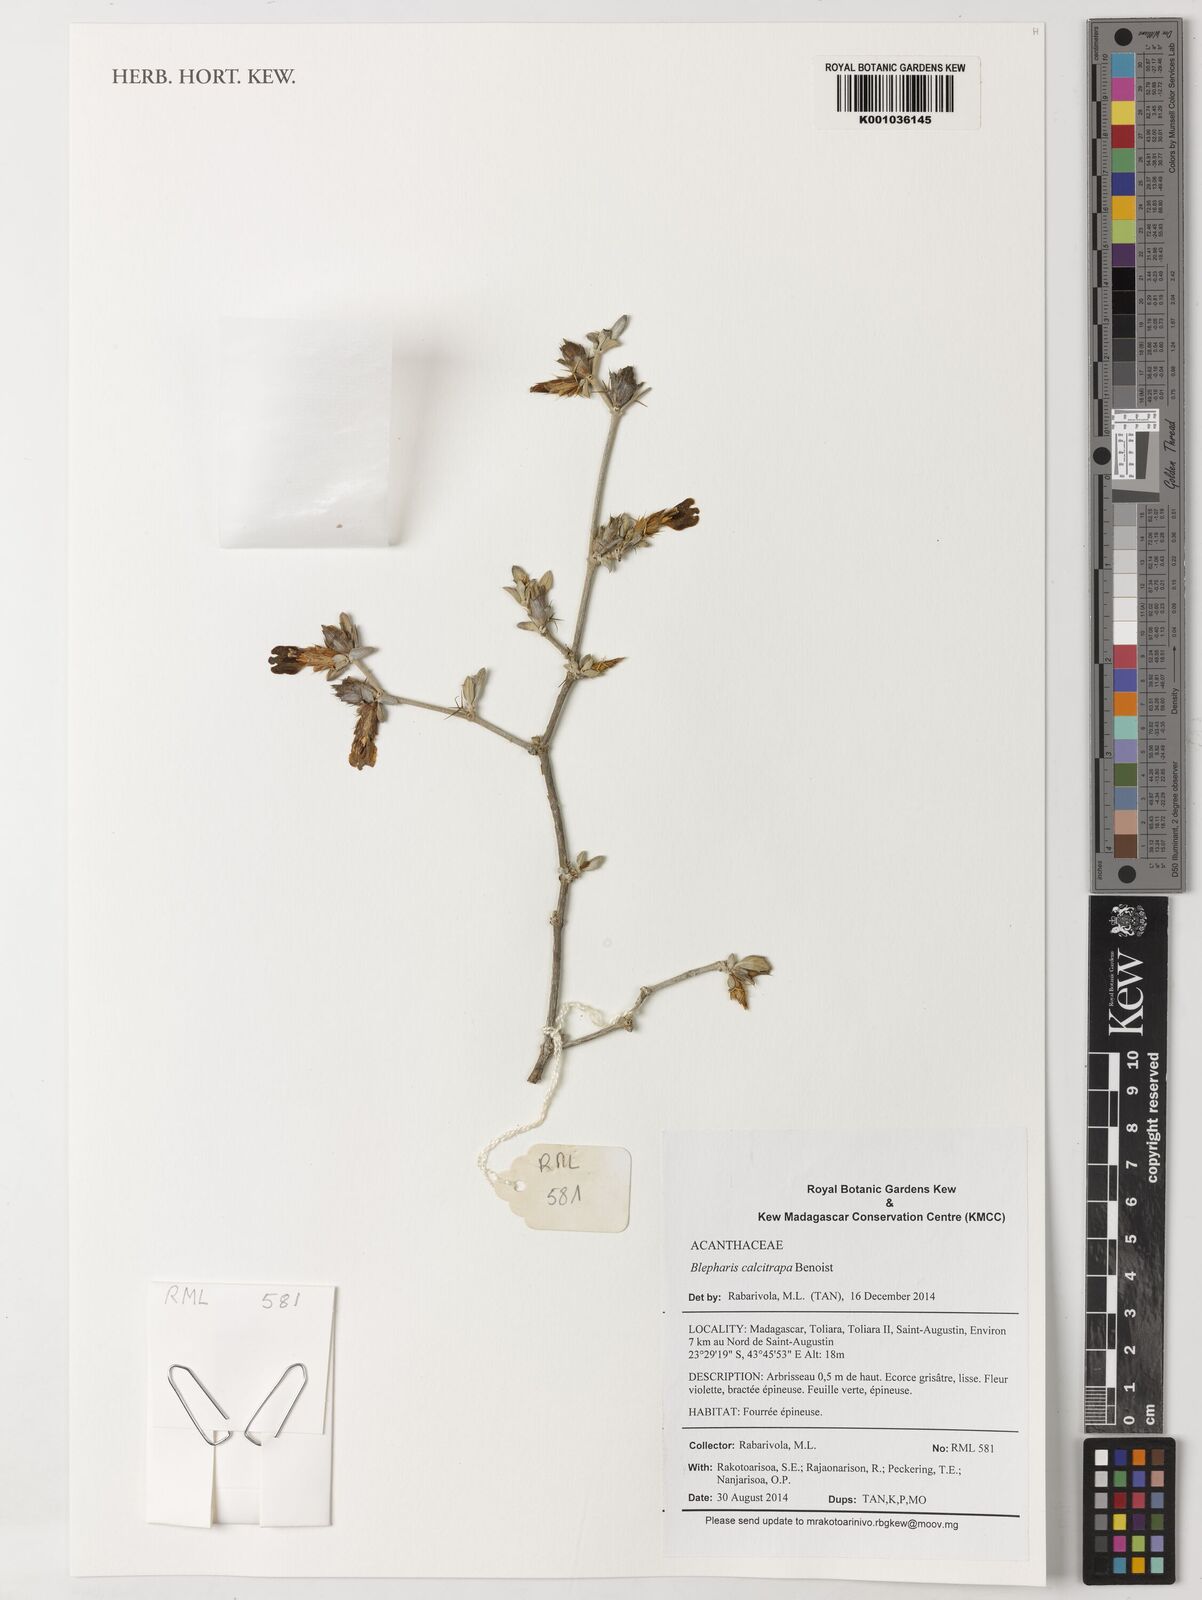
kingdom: Plantae
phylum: Tracheophyta
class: Magnoliopsida
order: Lamiales
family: Acanthaceae
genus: Blepharis
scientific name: Blepharis calcitrapa
